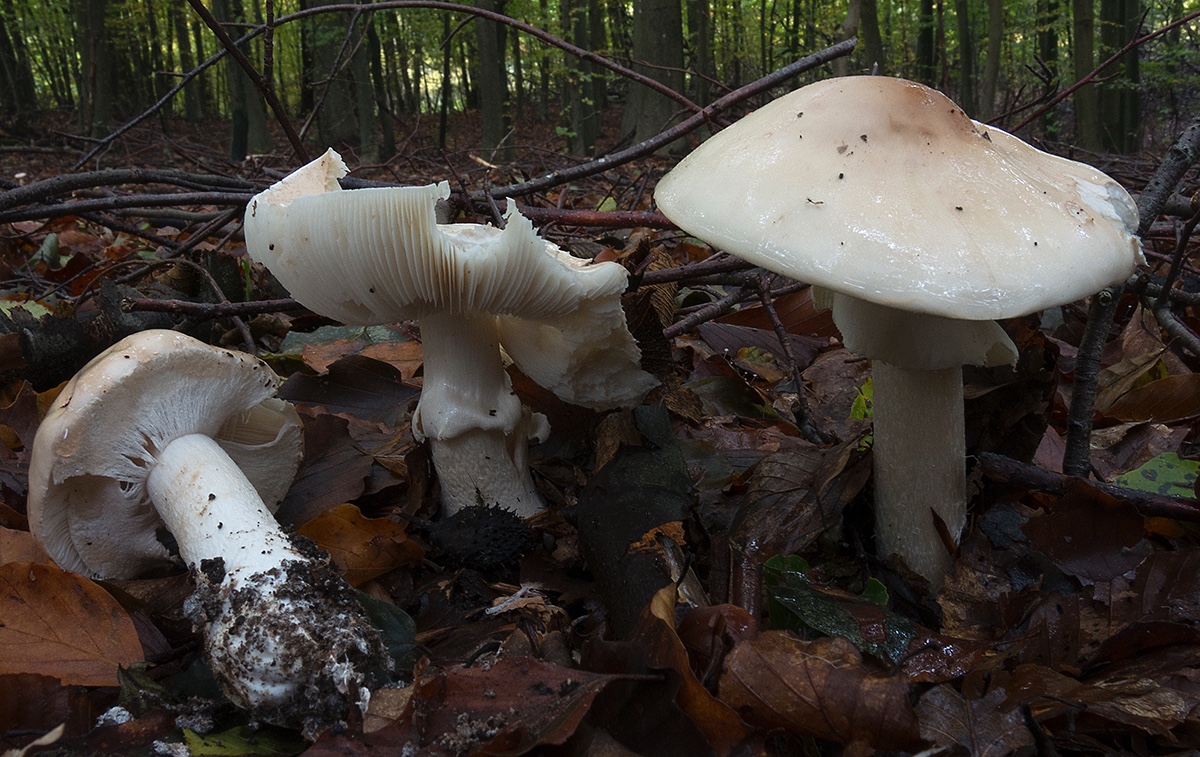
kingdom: Fungi
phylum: Basidiomycota
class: Agaricomycetes
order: Agaricales
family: Amanitaceae
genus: Limacellopsis
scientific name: Limacellopsis guttata
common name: tåre-snekkehat
